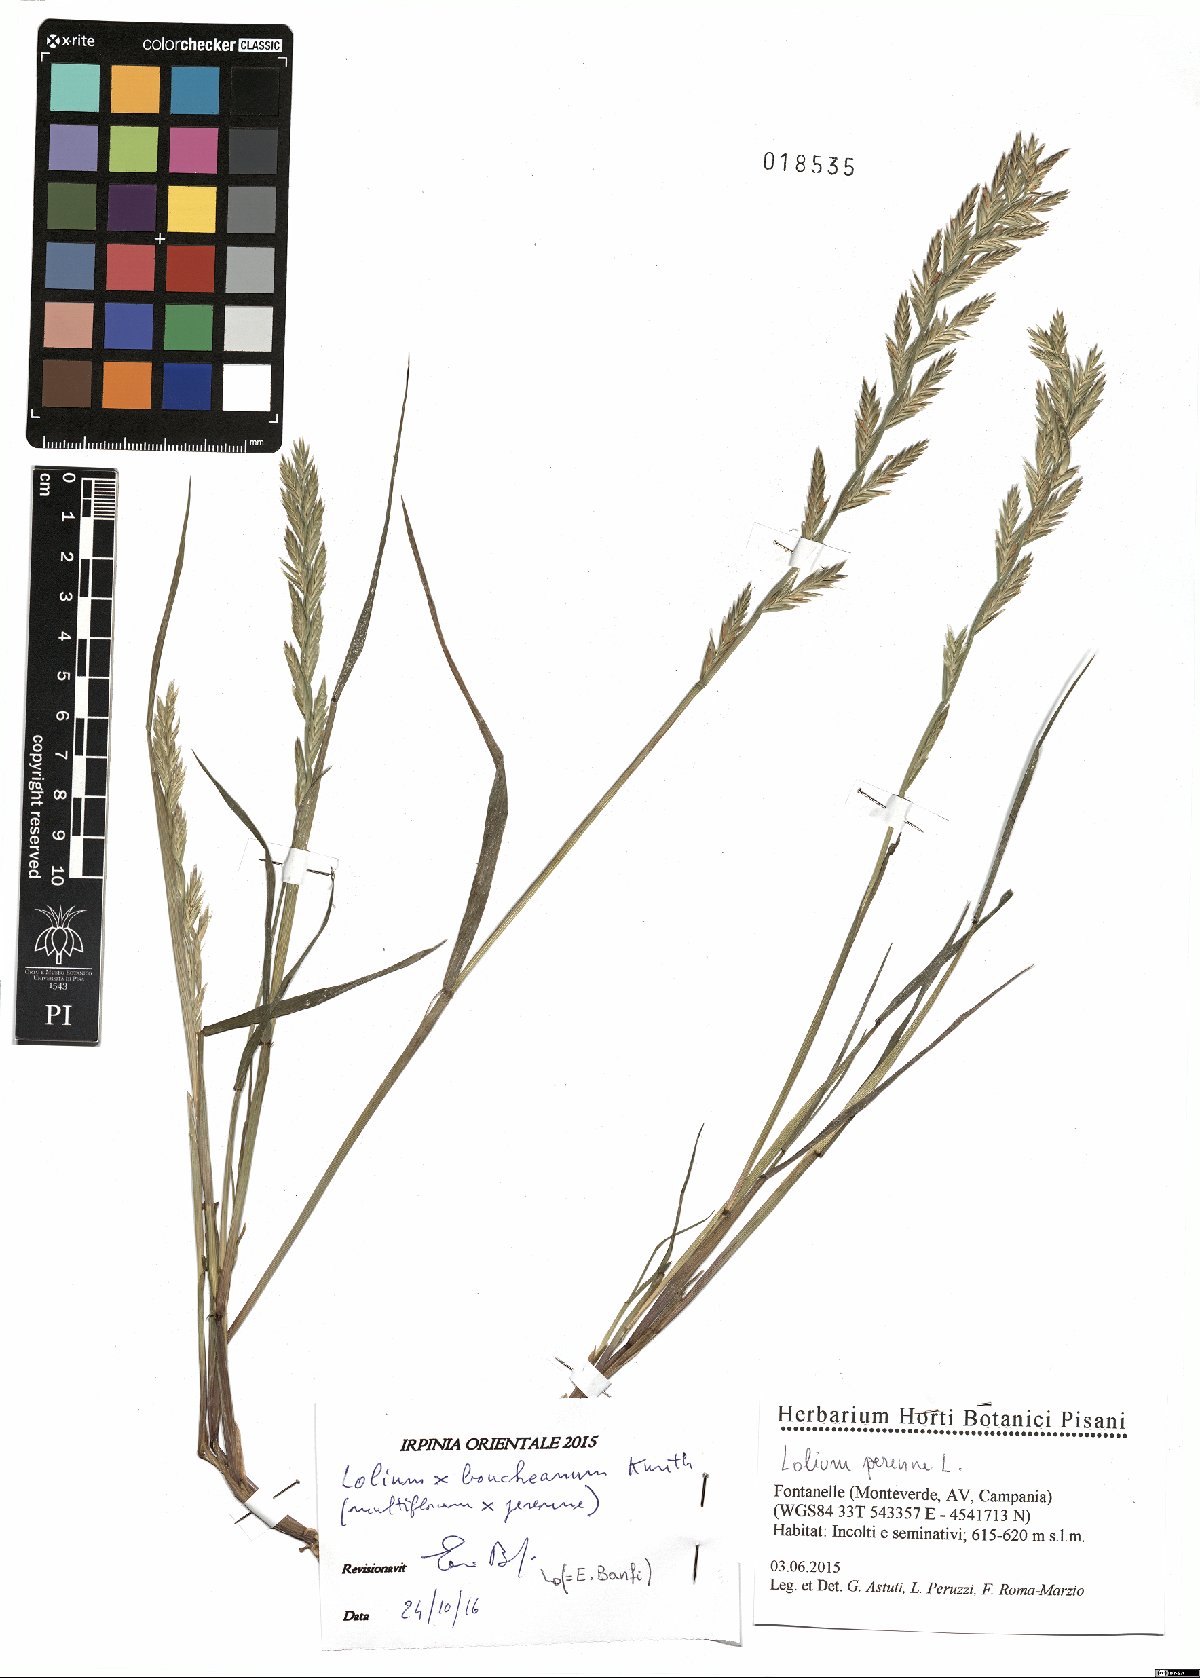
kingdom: Plantae
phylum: Tracheophyta
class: Liliopsida
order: Poales
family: Poaceae
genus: Lolium
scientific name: Lolium boucheanum
